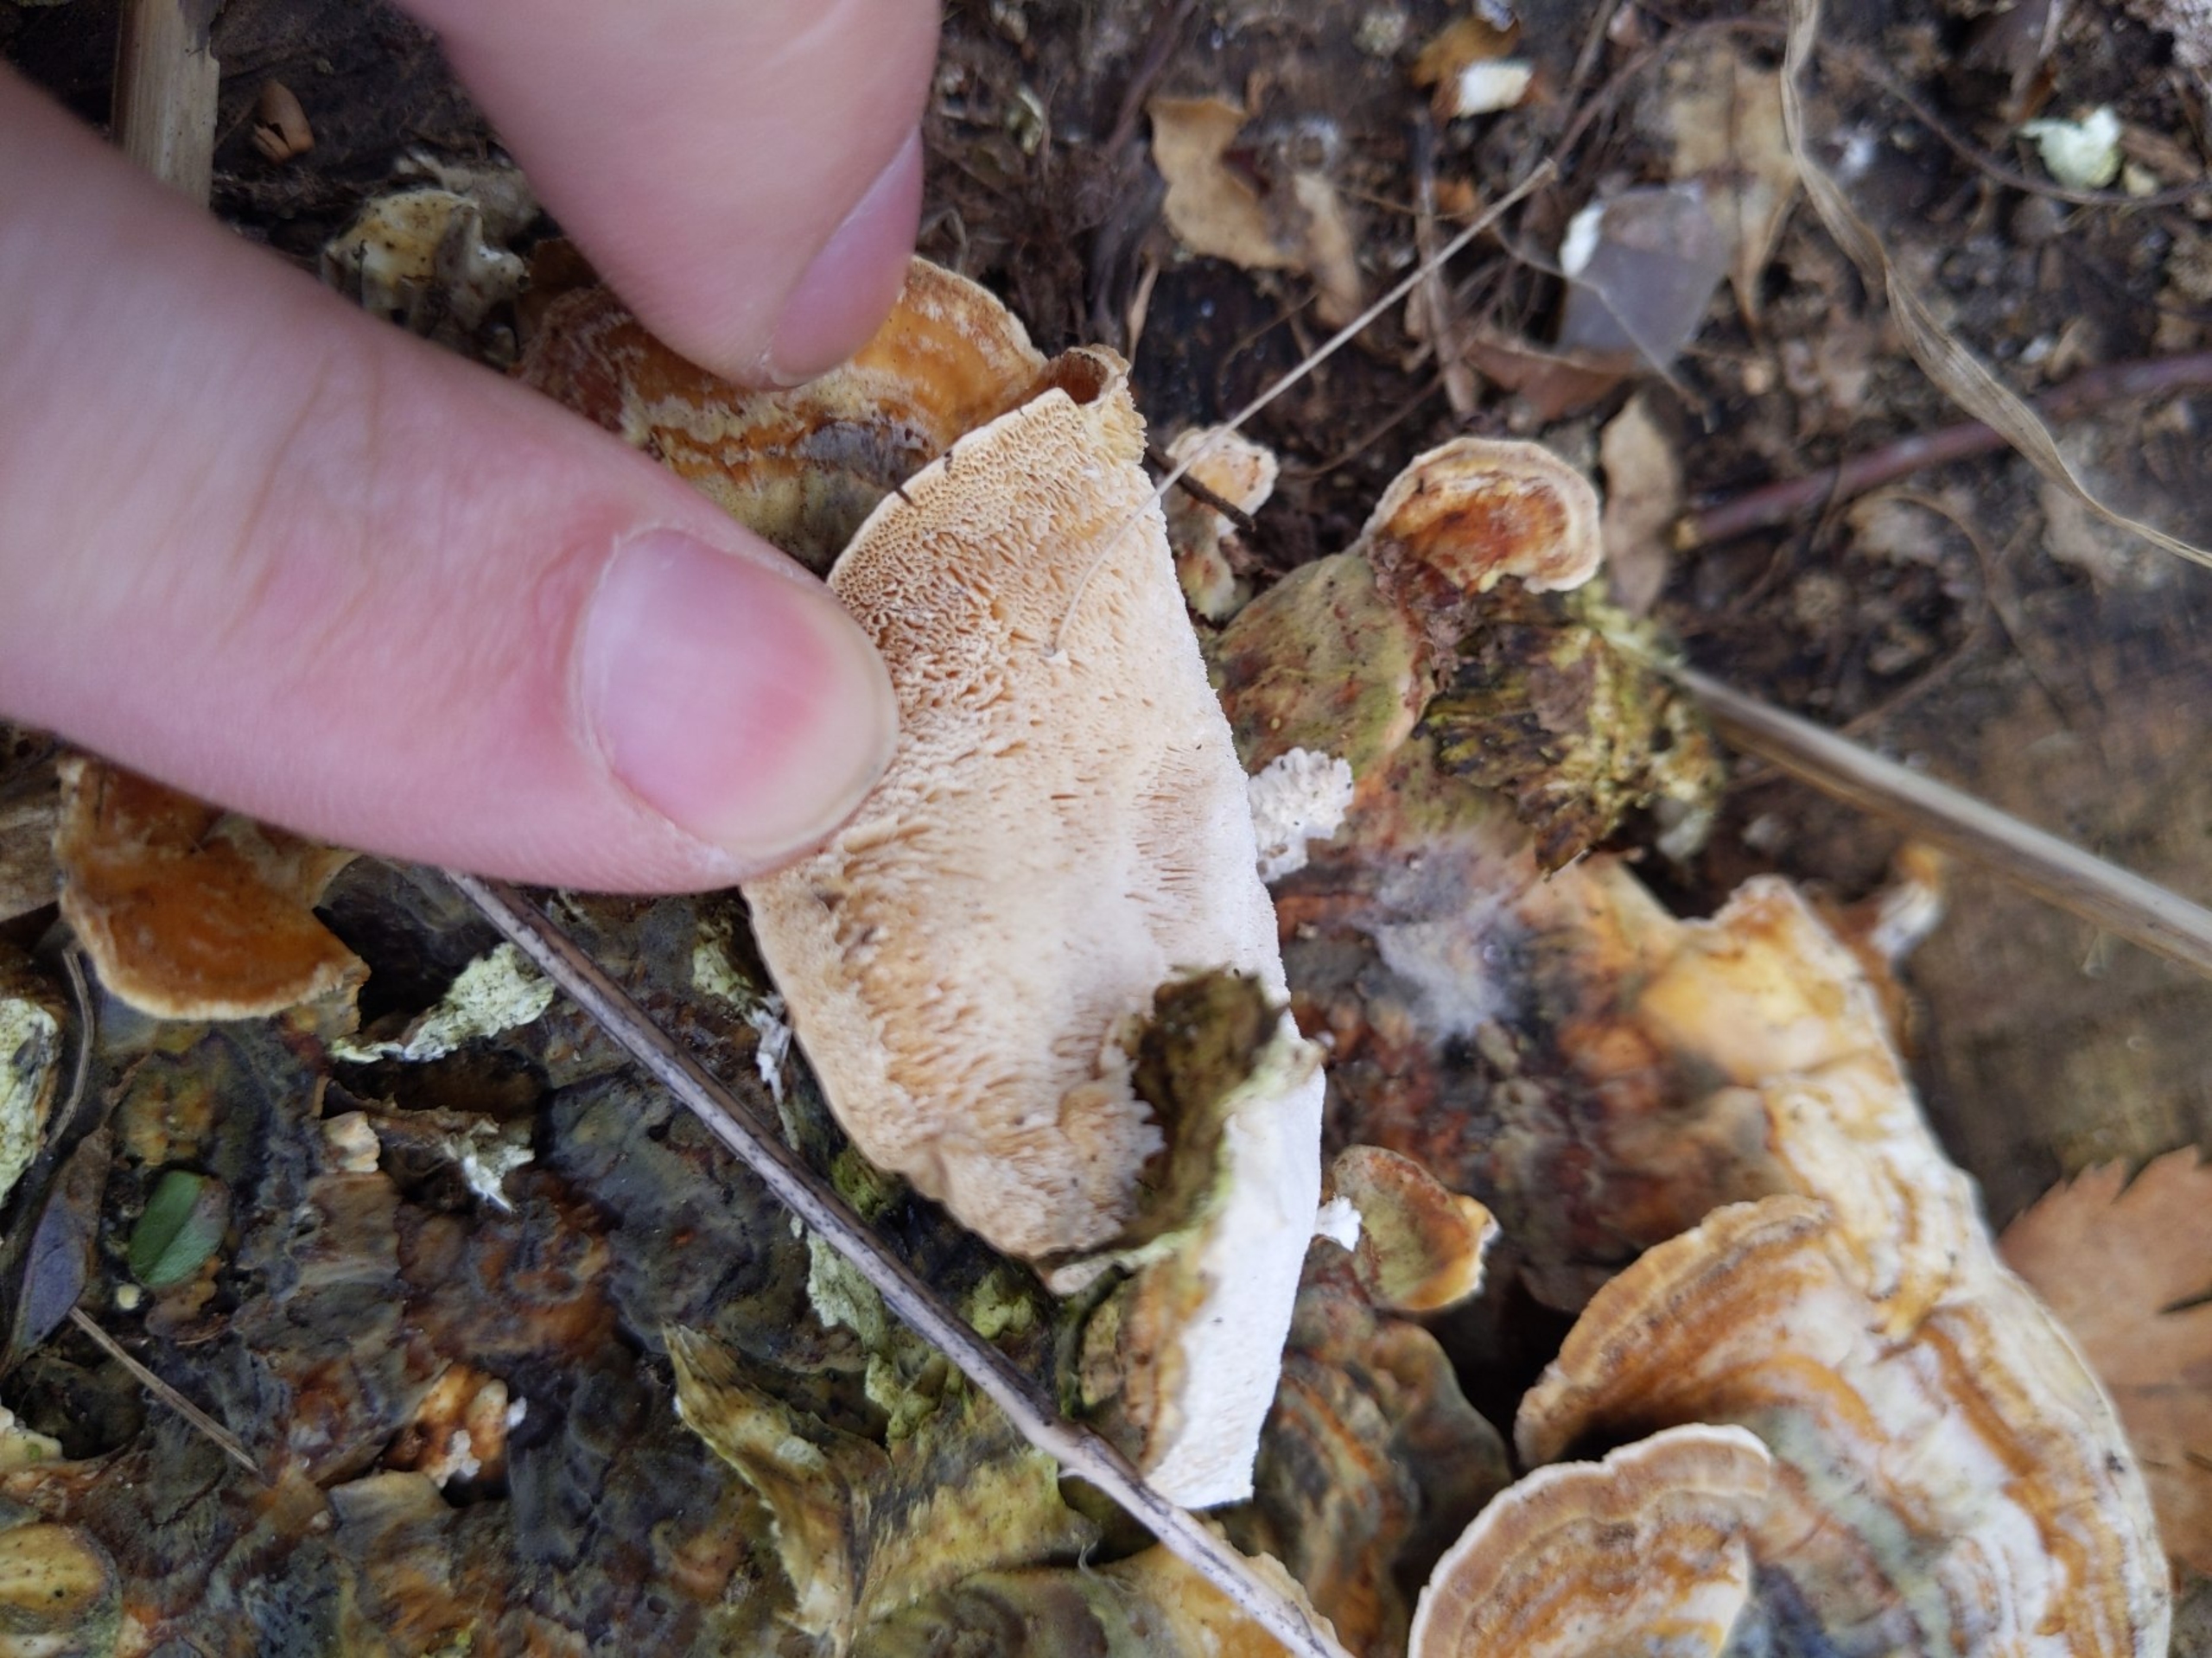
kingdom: Fungi
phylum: Basidiomycota
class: Agaricomycetes
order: Polyporales
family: Polyporaceae
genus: Trametes
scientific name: Trametes versicolor
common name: Broget læderporesvamp
